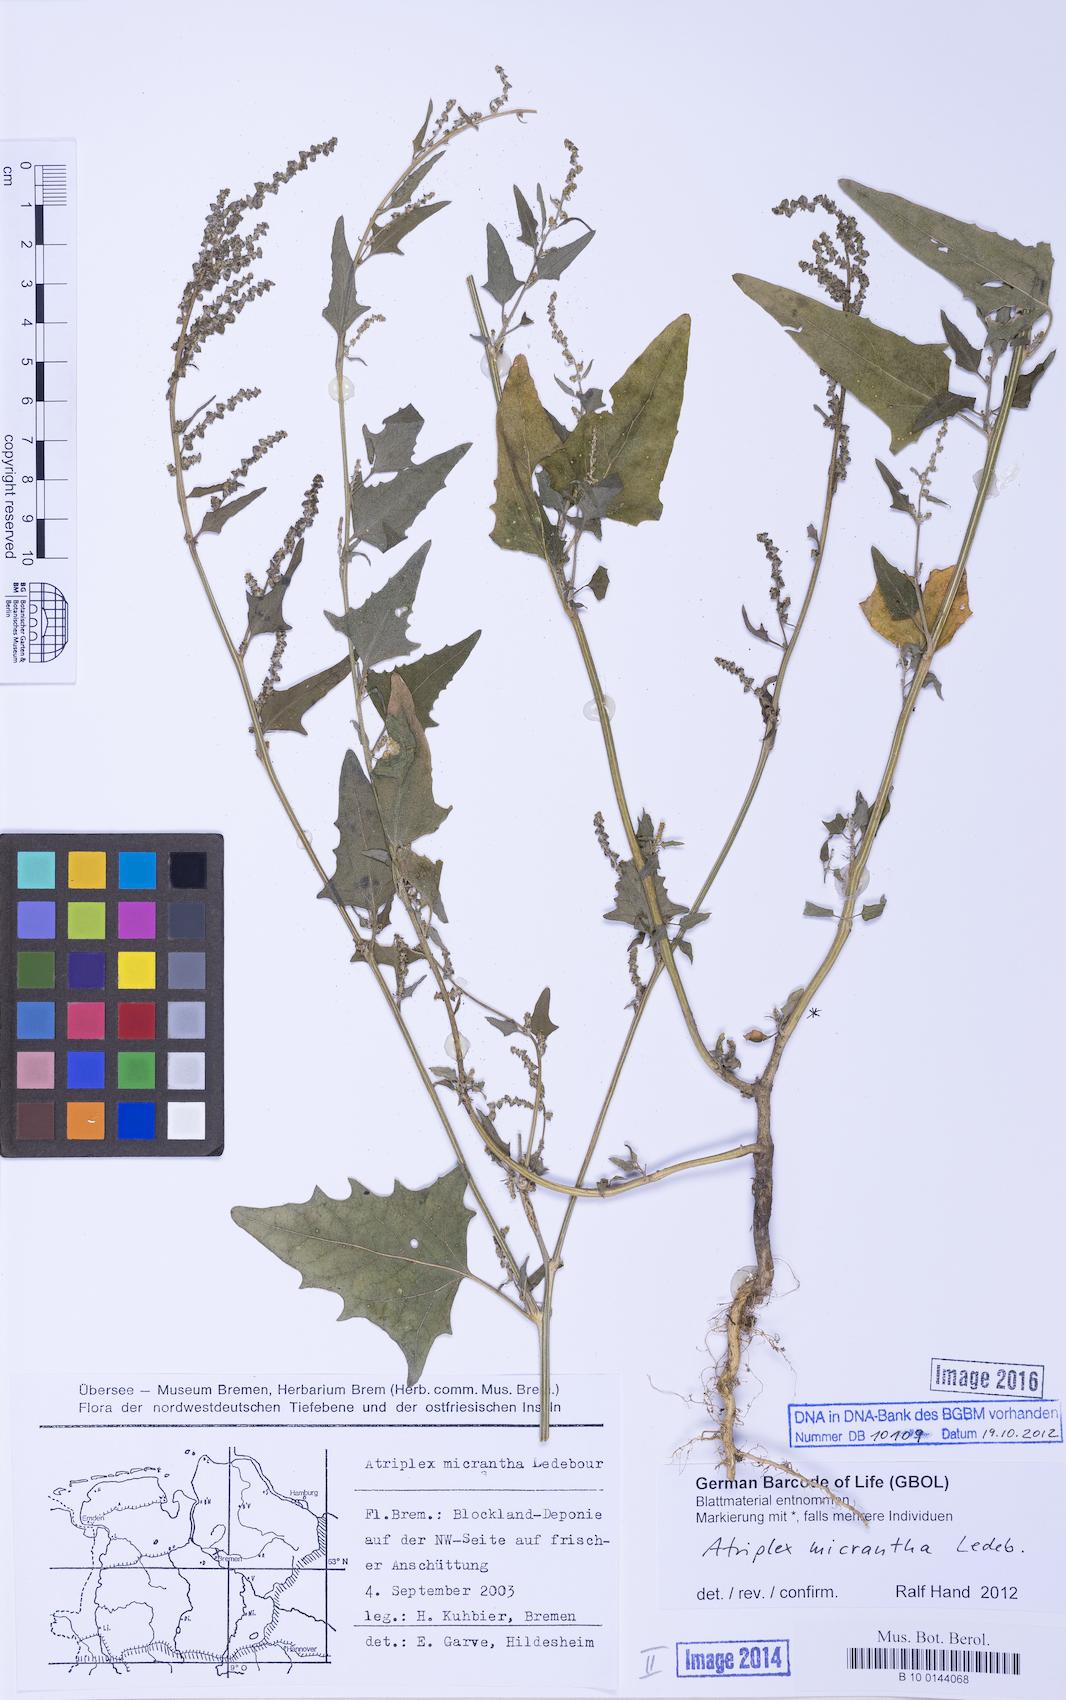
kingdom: Plantae
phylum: Tracheophyta
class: Magnoliopsida
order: Caryophyllales
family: Amaranthaceae
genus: Atriplex
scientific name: Atriplex micrantha
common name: Twoscale saltbush
